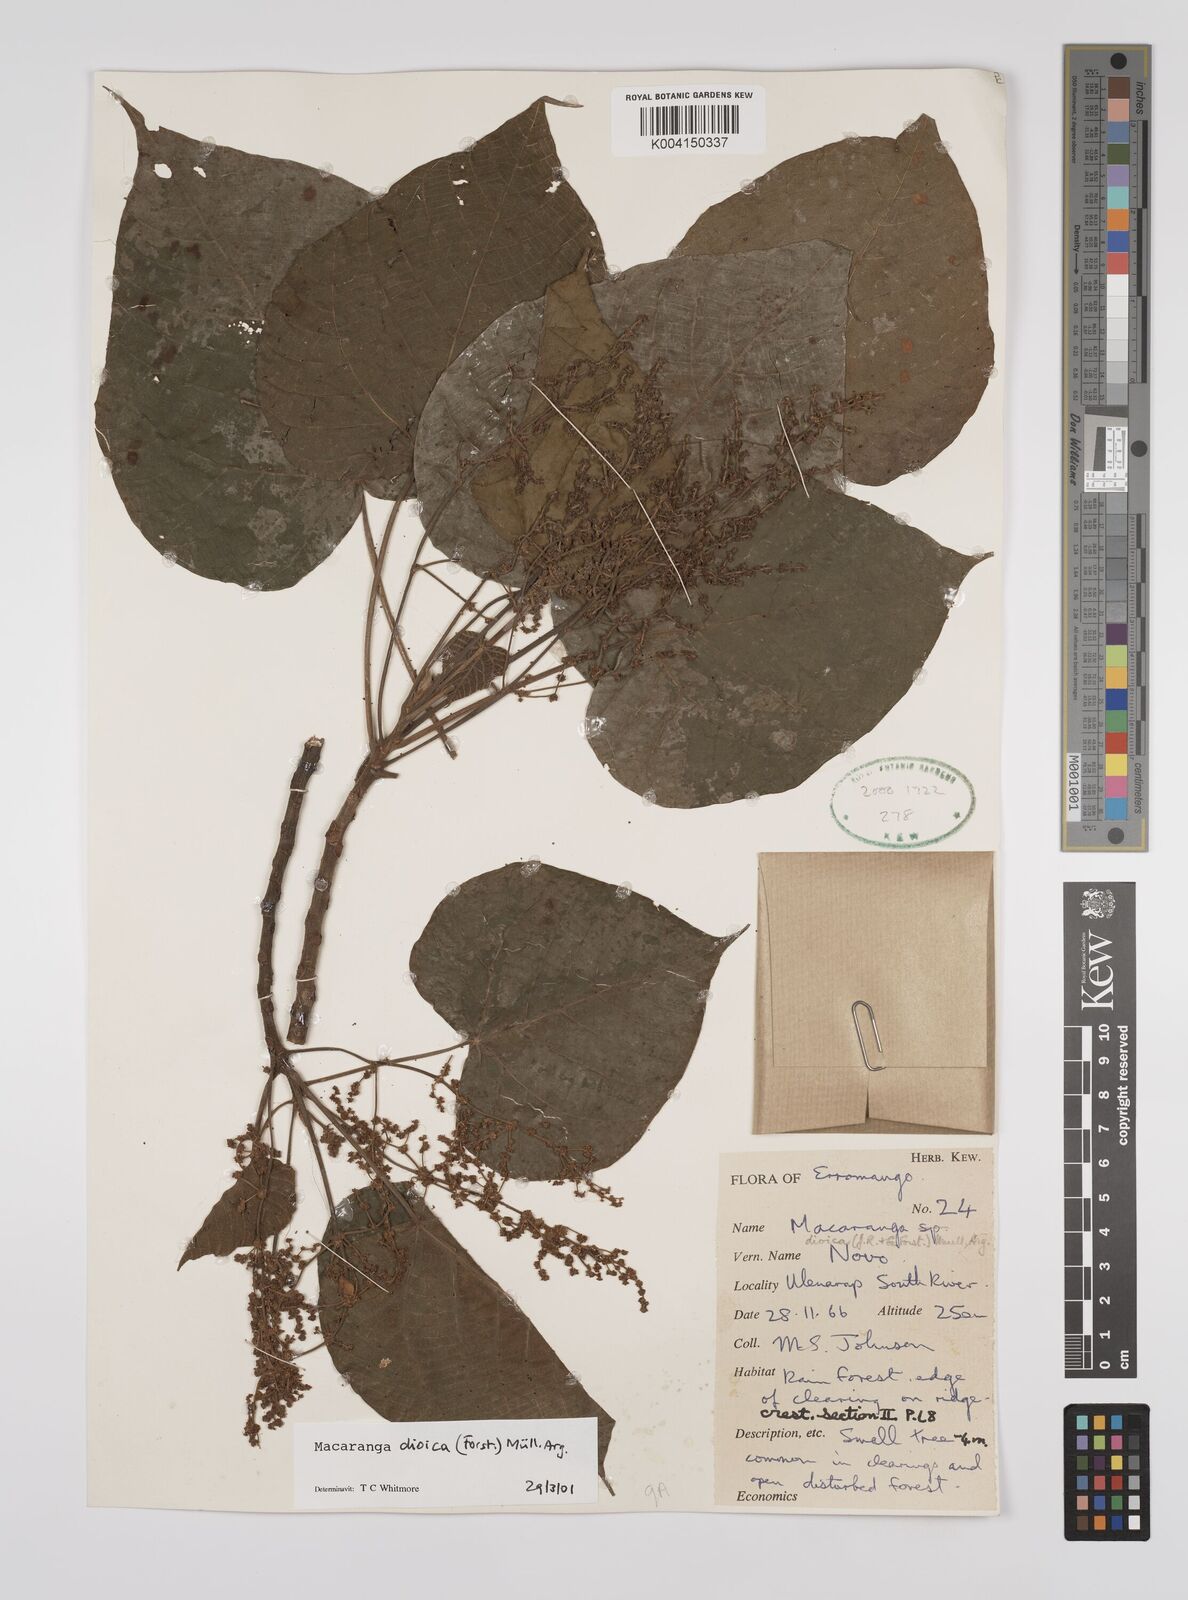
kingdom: Plantae
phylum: Tracheophyta
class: Magnoliopsida
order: Malpighiales
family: Euphorbiaceae
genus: Macaranga
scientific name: Macaranga dioica
